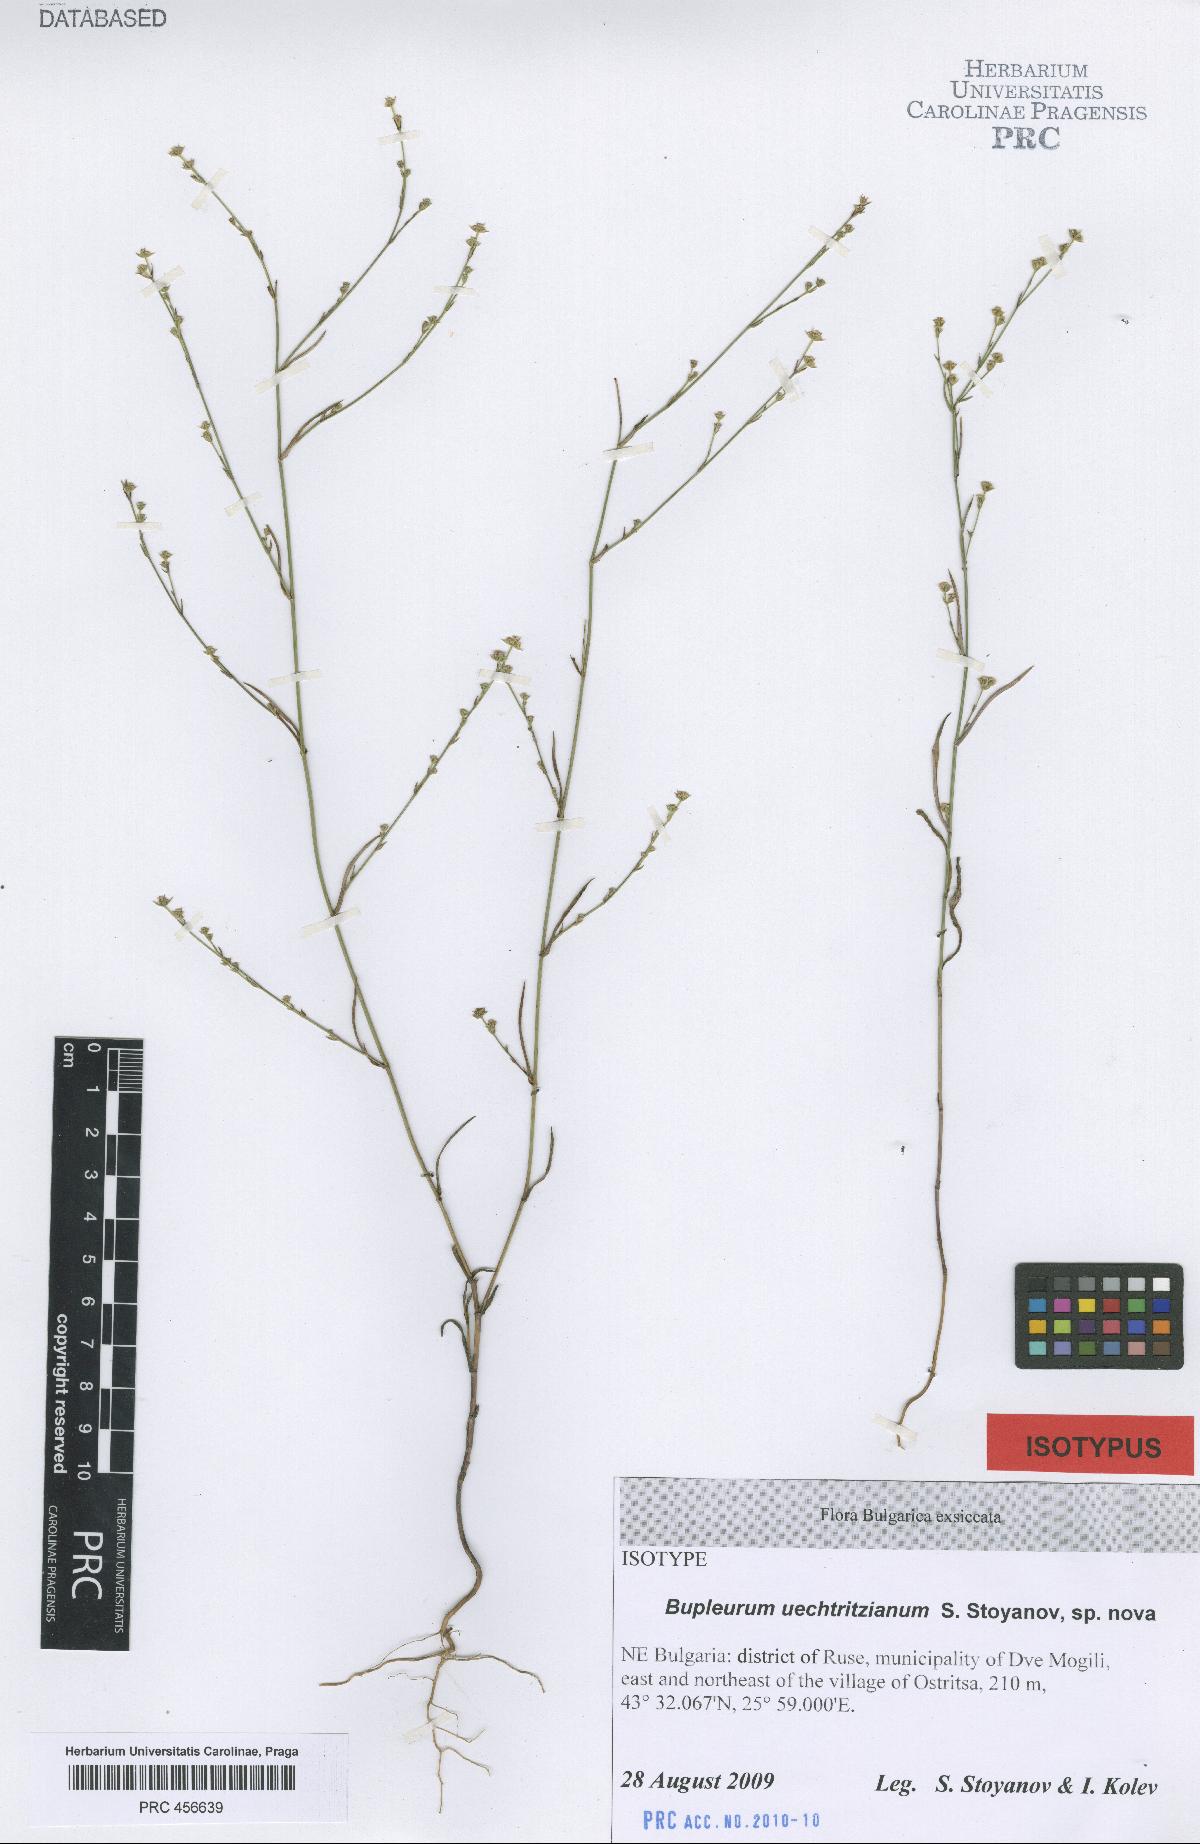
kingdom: Plantae
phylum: Tracheophyta
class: Magnoliopsida
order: Apiales
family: Apiaceae
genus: Bupleurum
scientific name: Bupleurum boissieri
